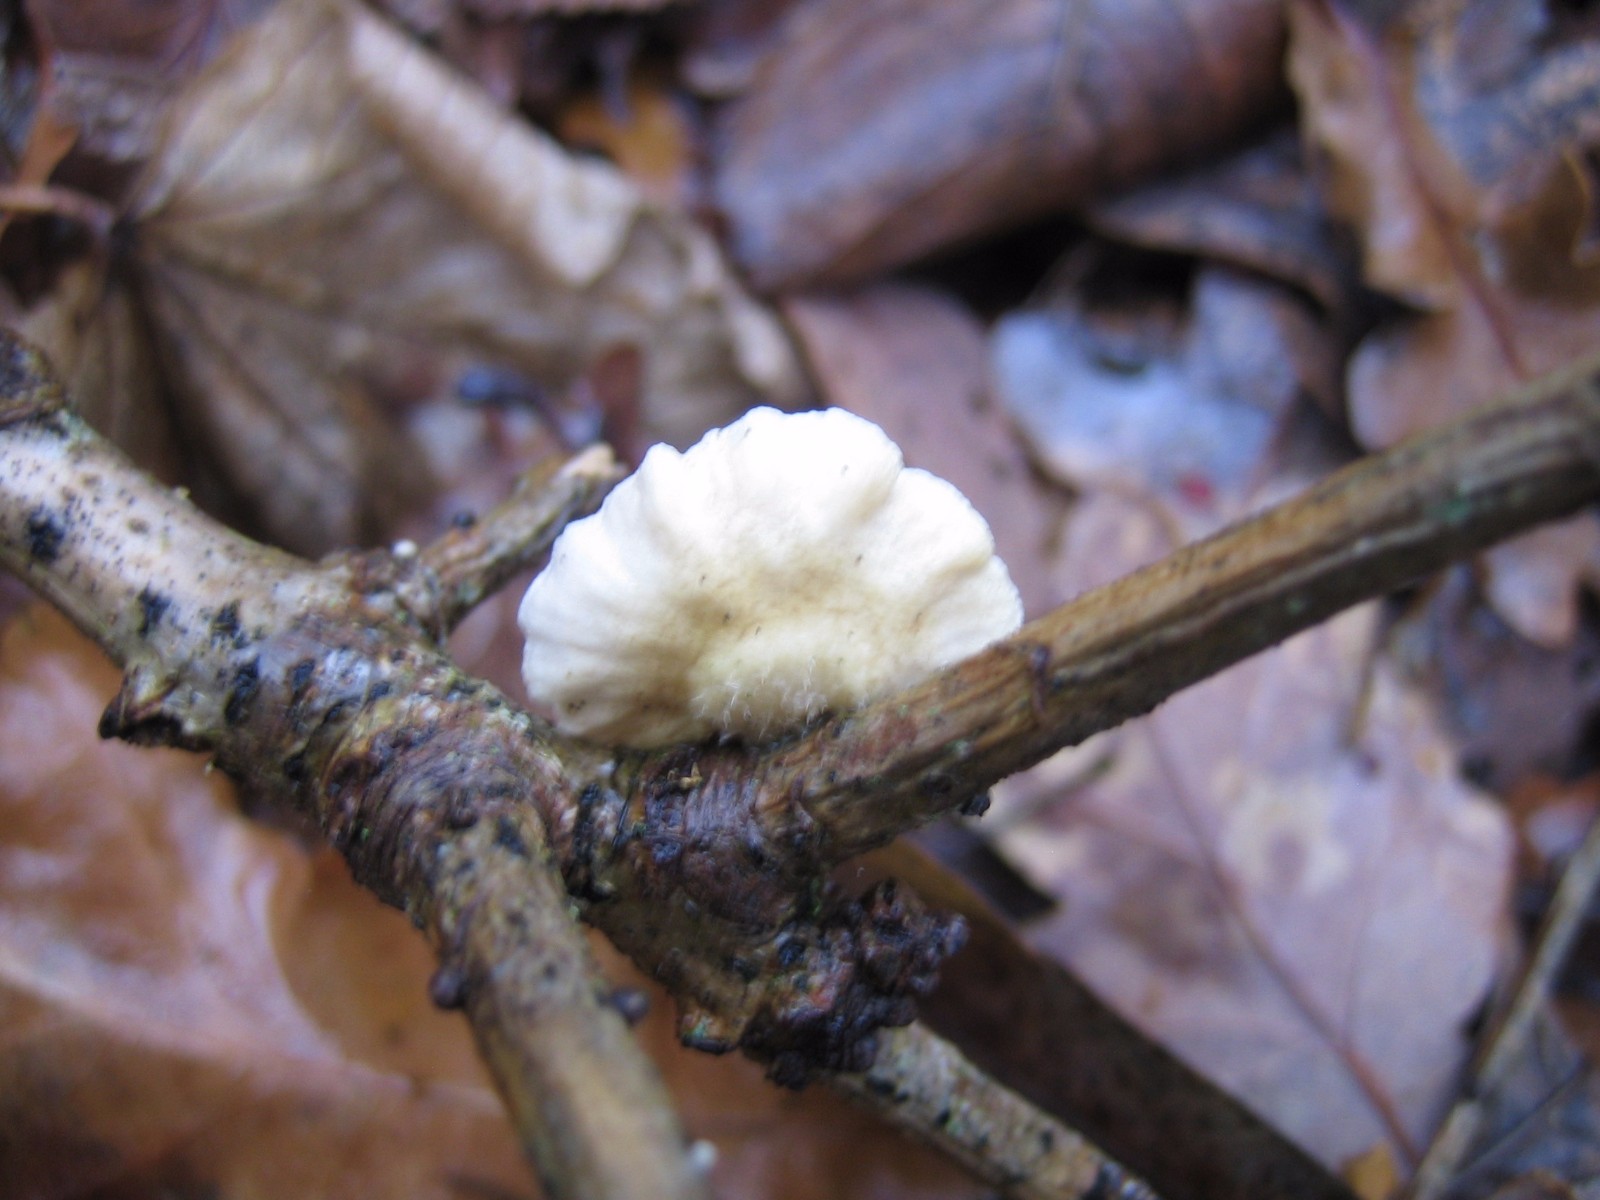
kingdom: Fungi
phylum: Basidiomycota
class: Agaricomycetes
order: Agaricales
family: Crepidotaceae
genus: Crepidotus
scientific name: Crepidotus
